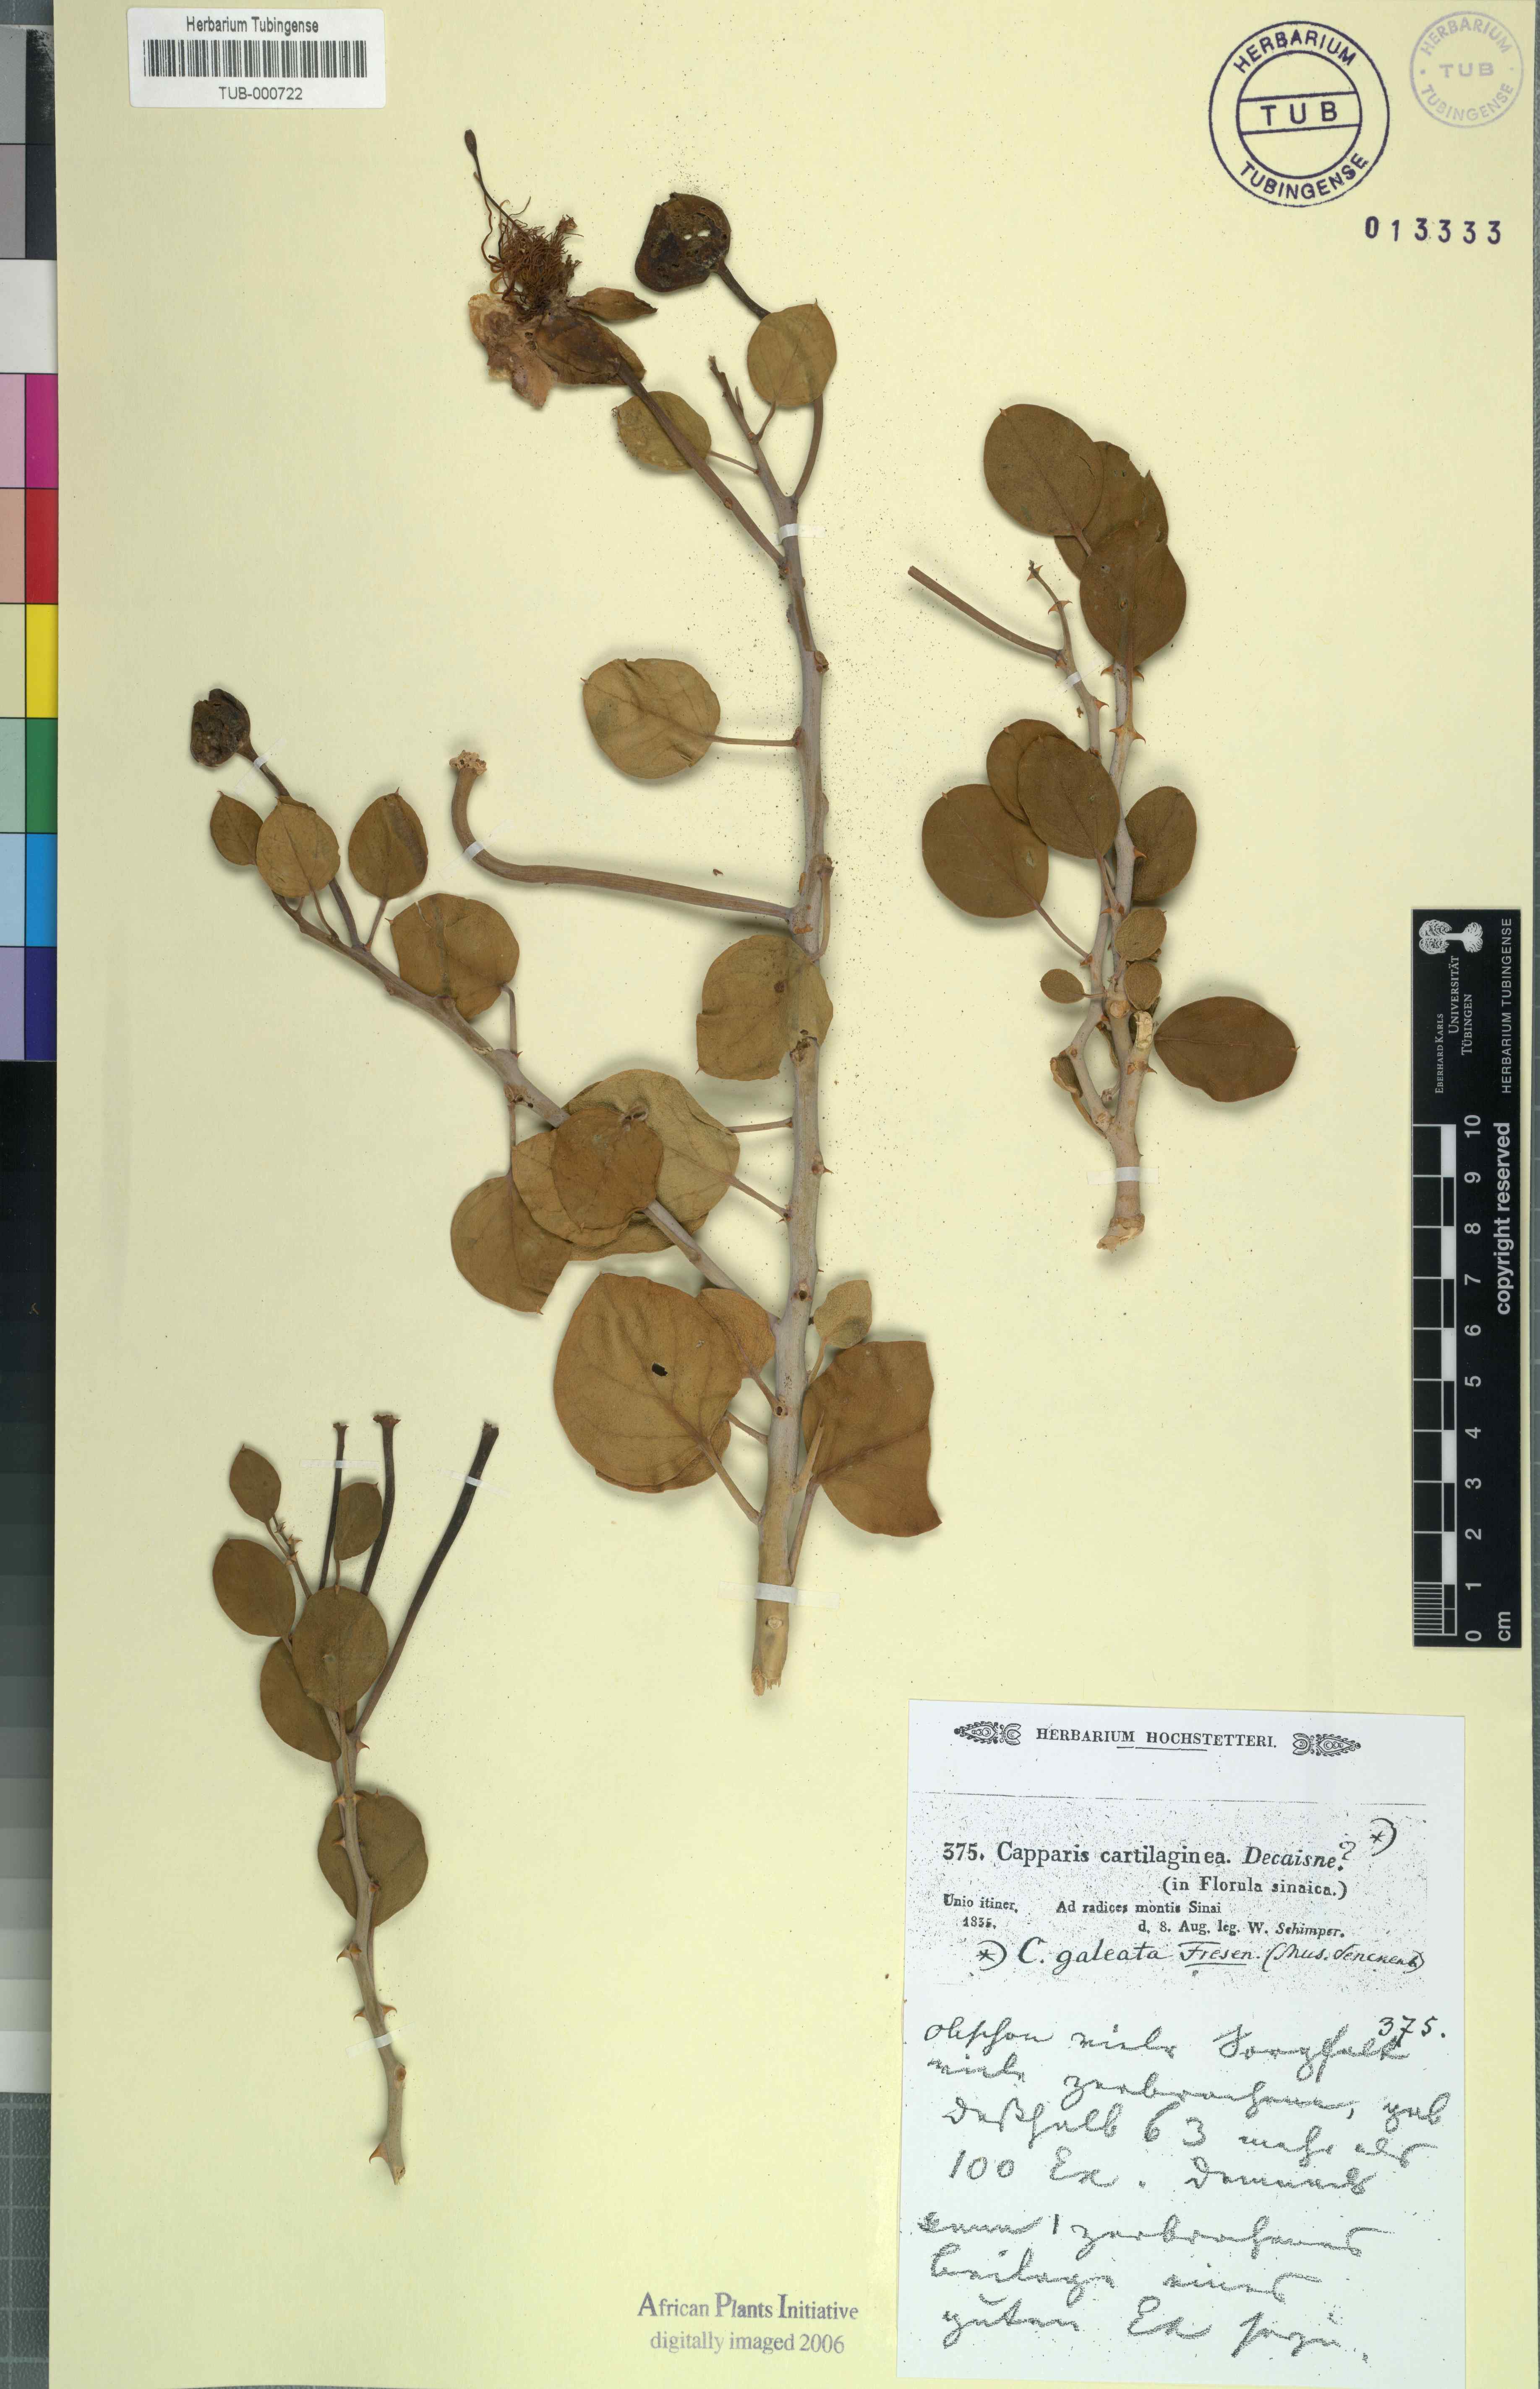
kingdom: Plantae
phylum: Tracheophyta
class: Magnoliopsida
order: Brassicales
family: Capparaceae
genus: Capparis
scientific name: Capparis spinosa
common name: Caper
